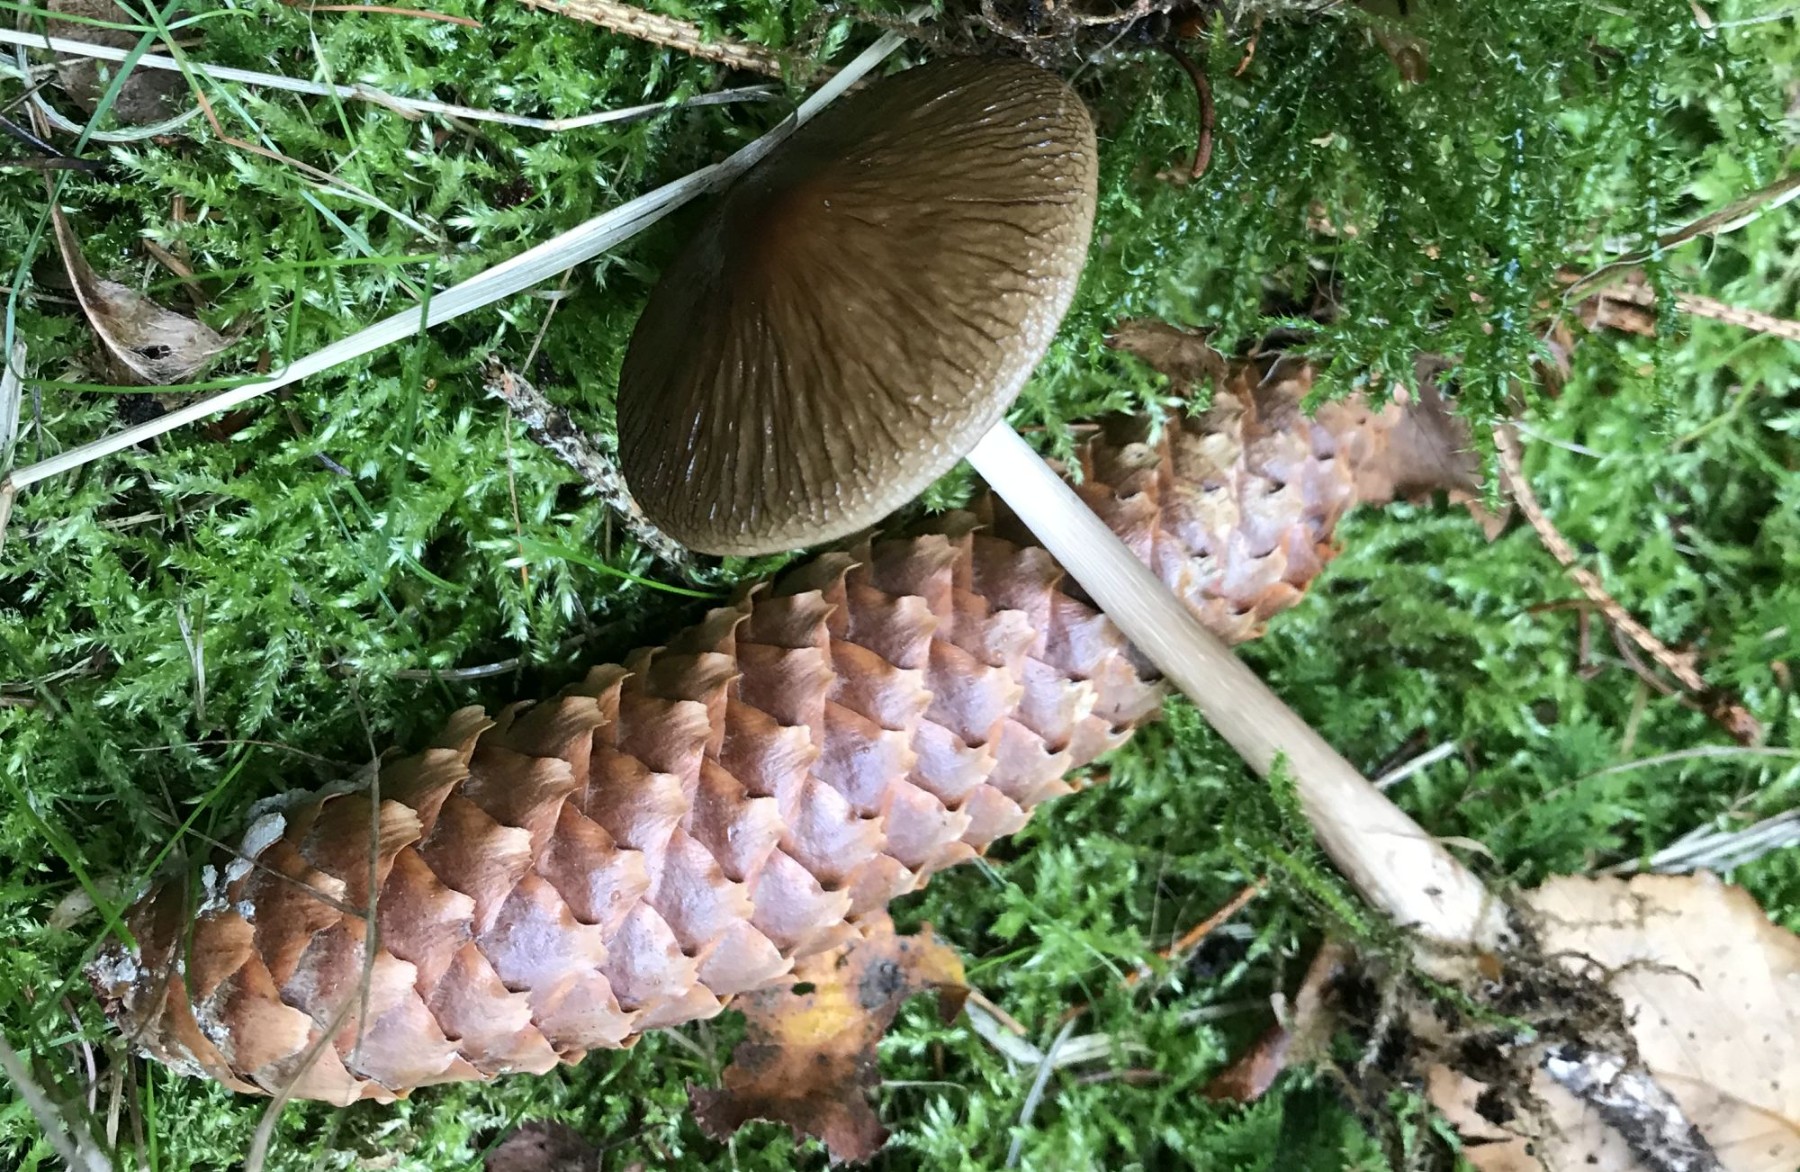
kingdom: Fungi
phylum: Basidiomycota
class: Agaricomycetes
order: Agaricales
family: Physalacriaceae
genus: Hymenopellis
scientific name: Hymenopellis radicata
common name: almindelig pælerodshat
